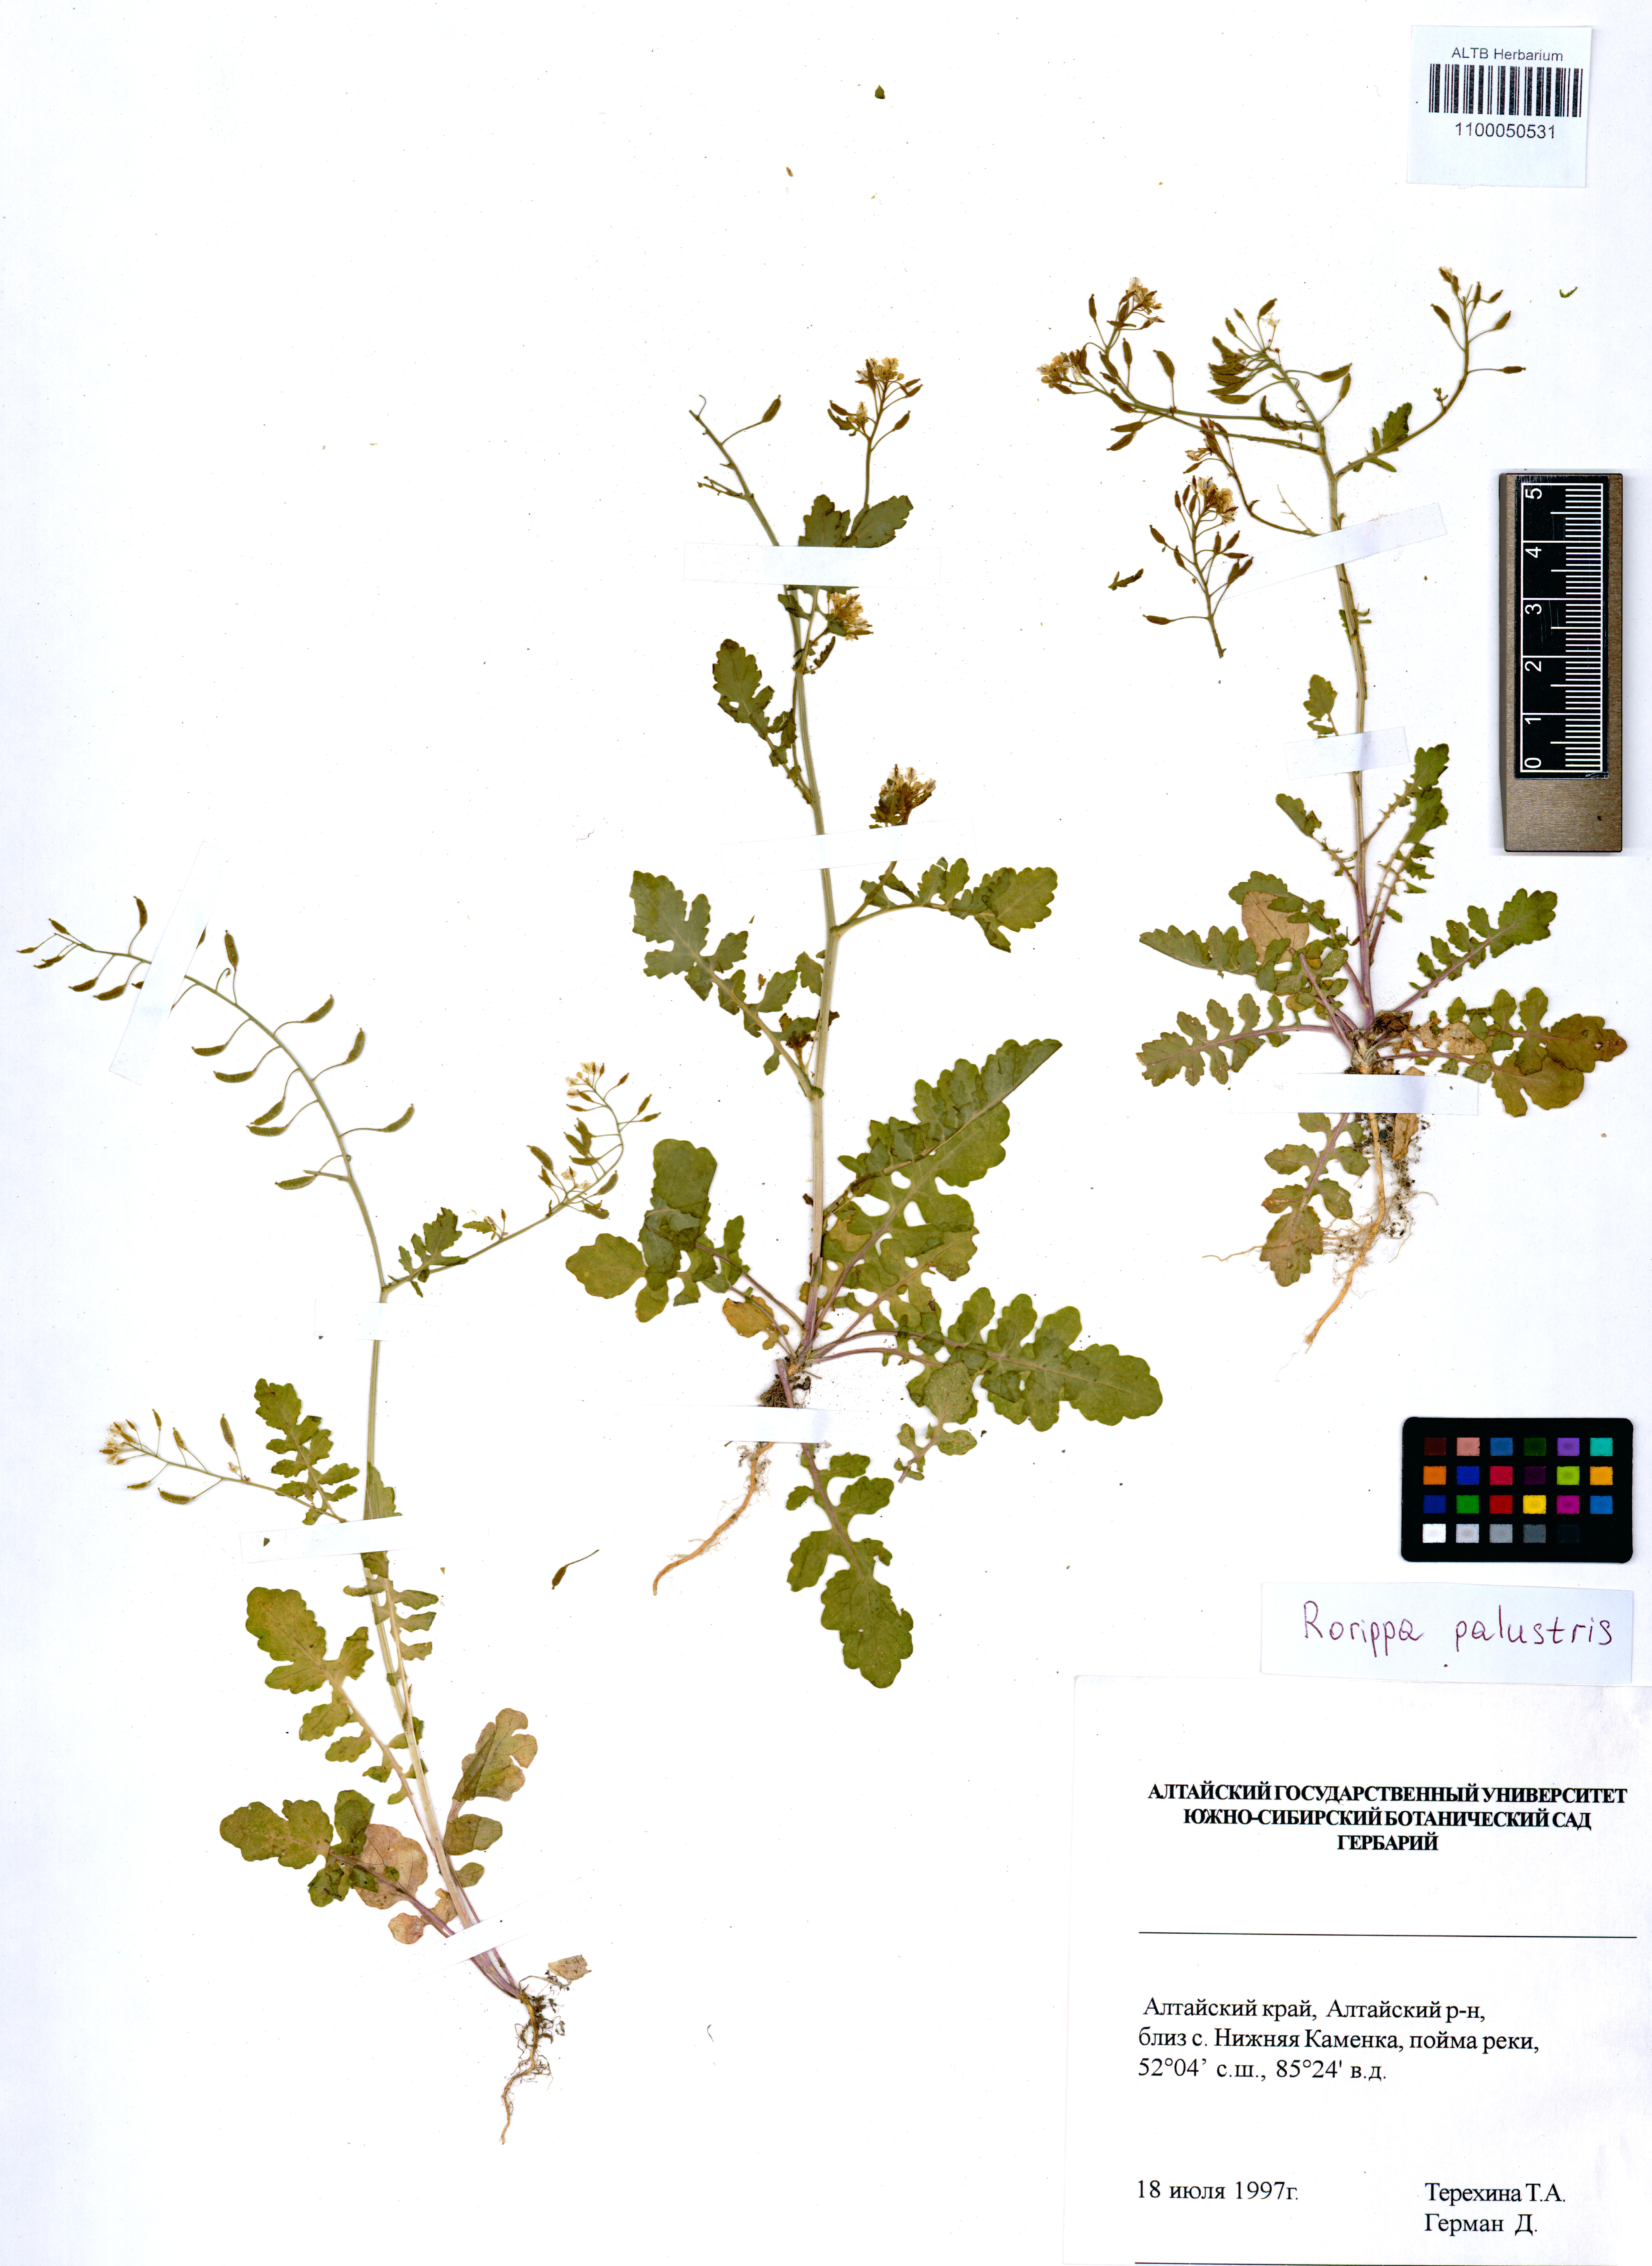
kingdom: Plantae
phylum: Tracheophyta
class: Magnoliopsida
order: Brassicales
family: Brassicaceae
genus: Rorippa
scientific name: Rorippa palustris
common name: Marsh yellow-cress
